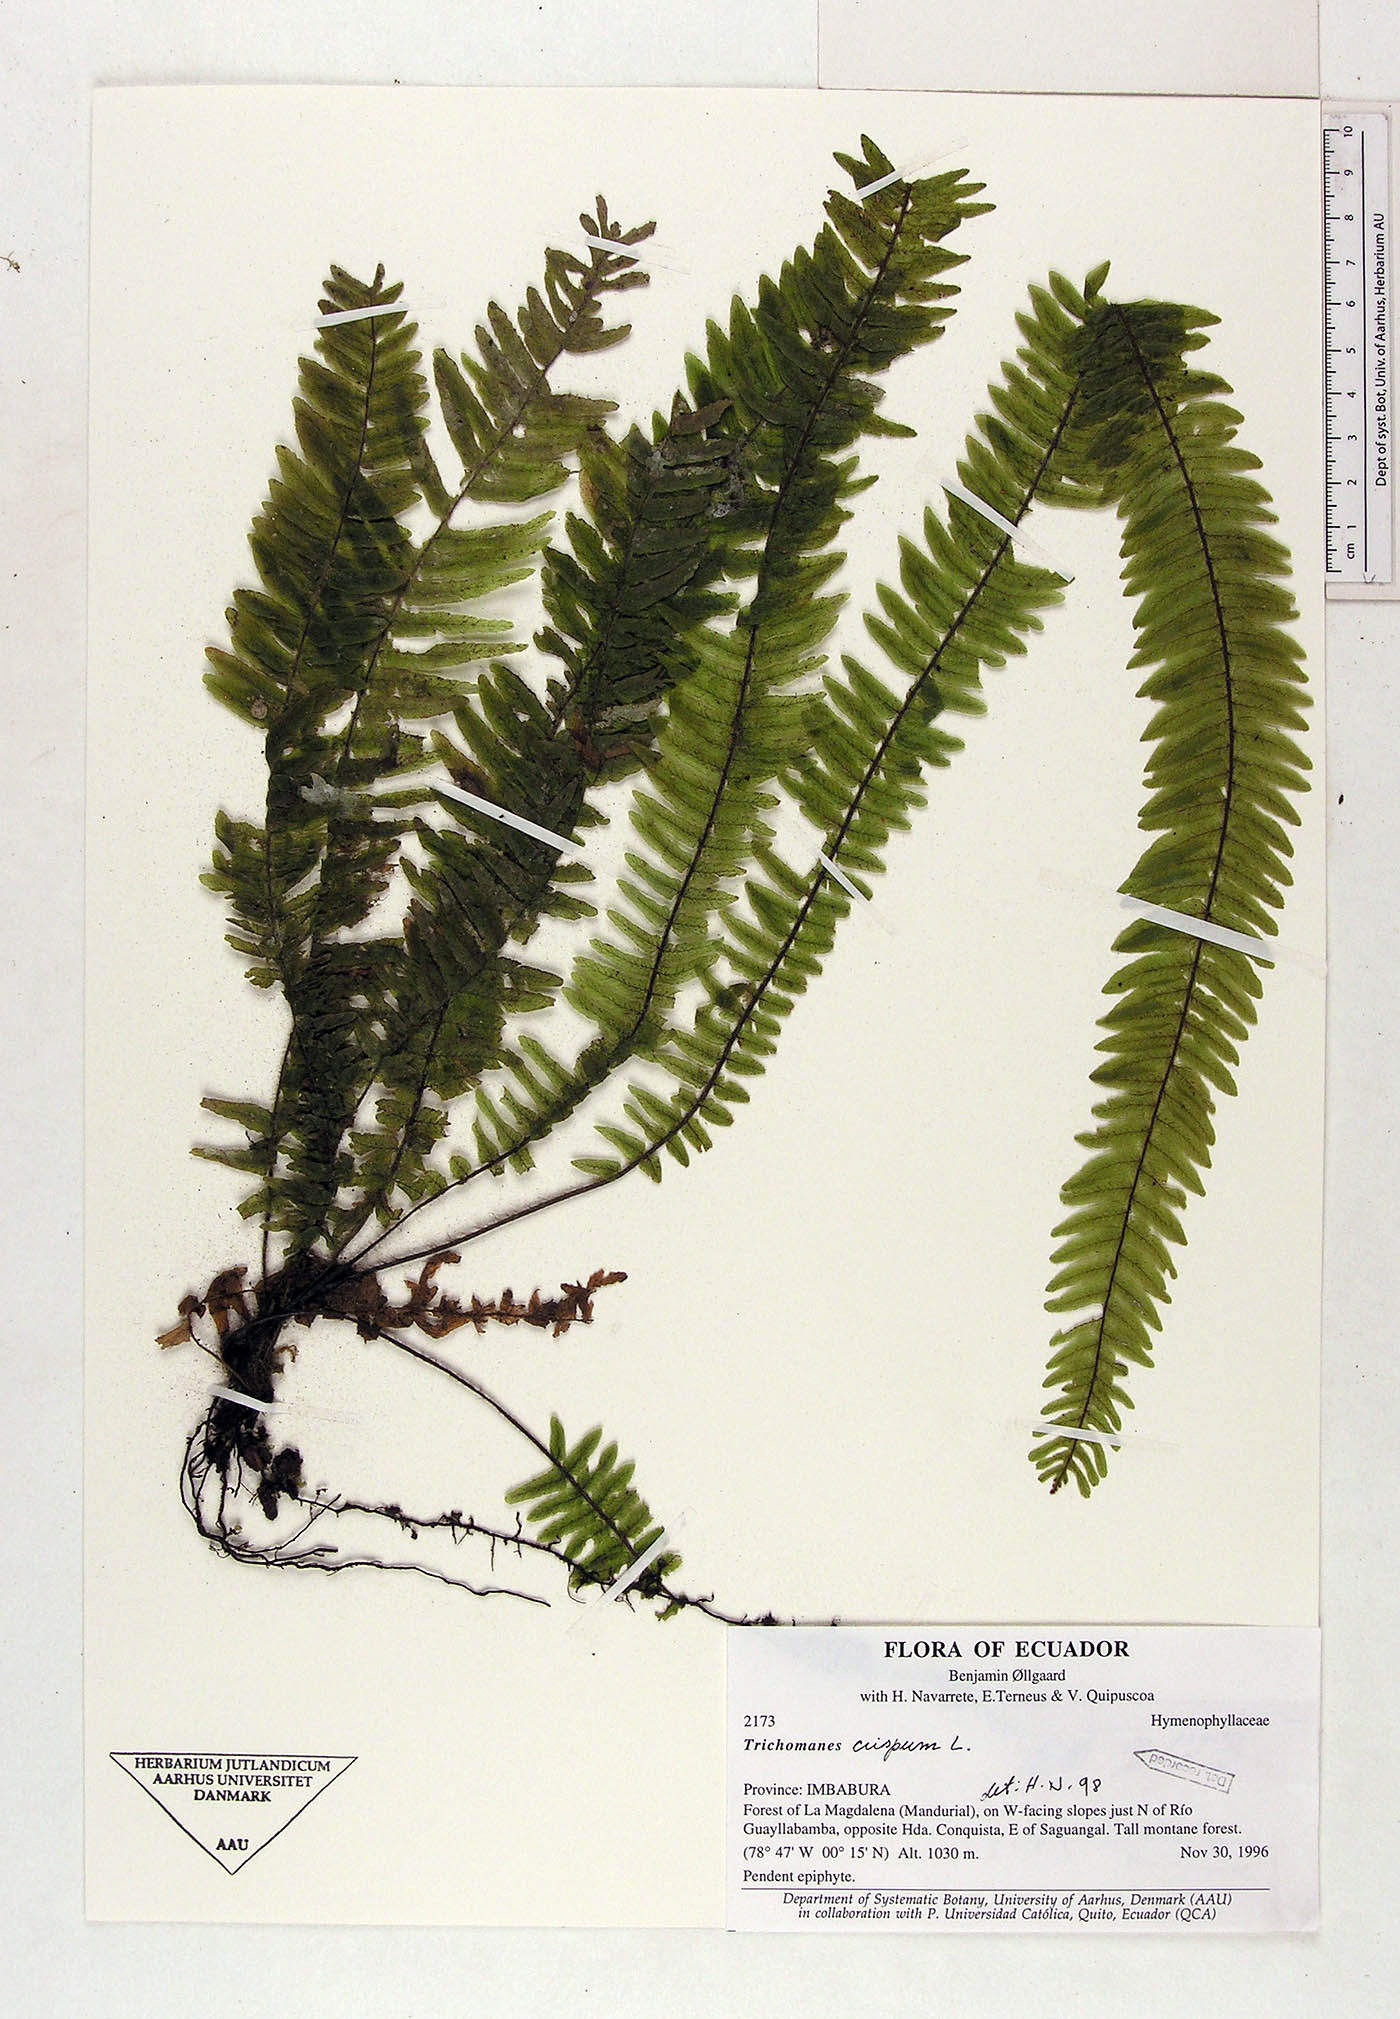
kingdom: Plantae
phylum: Tracheophyta
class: Polypodiopsida
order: Hymenophyllales
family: Hymenophyllaceae
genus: Trichomanes
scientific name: Trichomanes crispum
